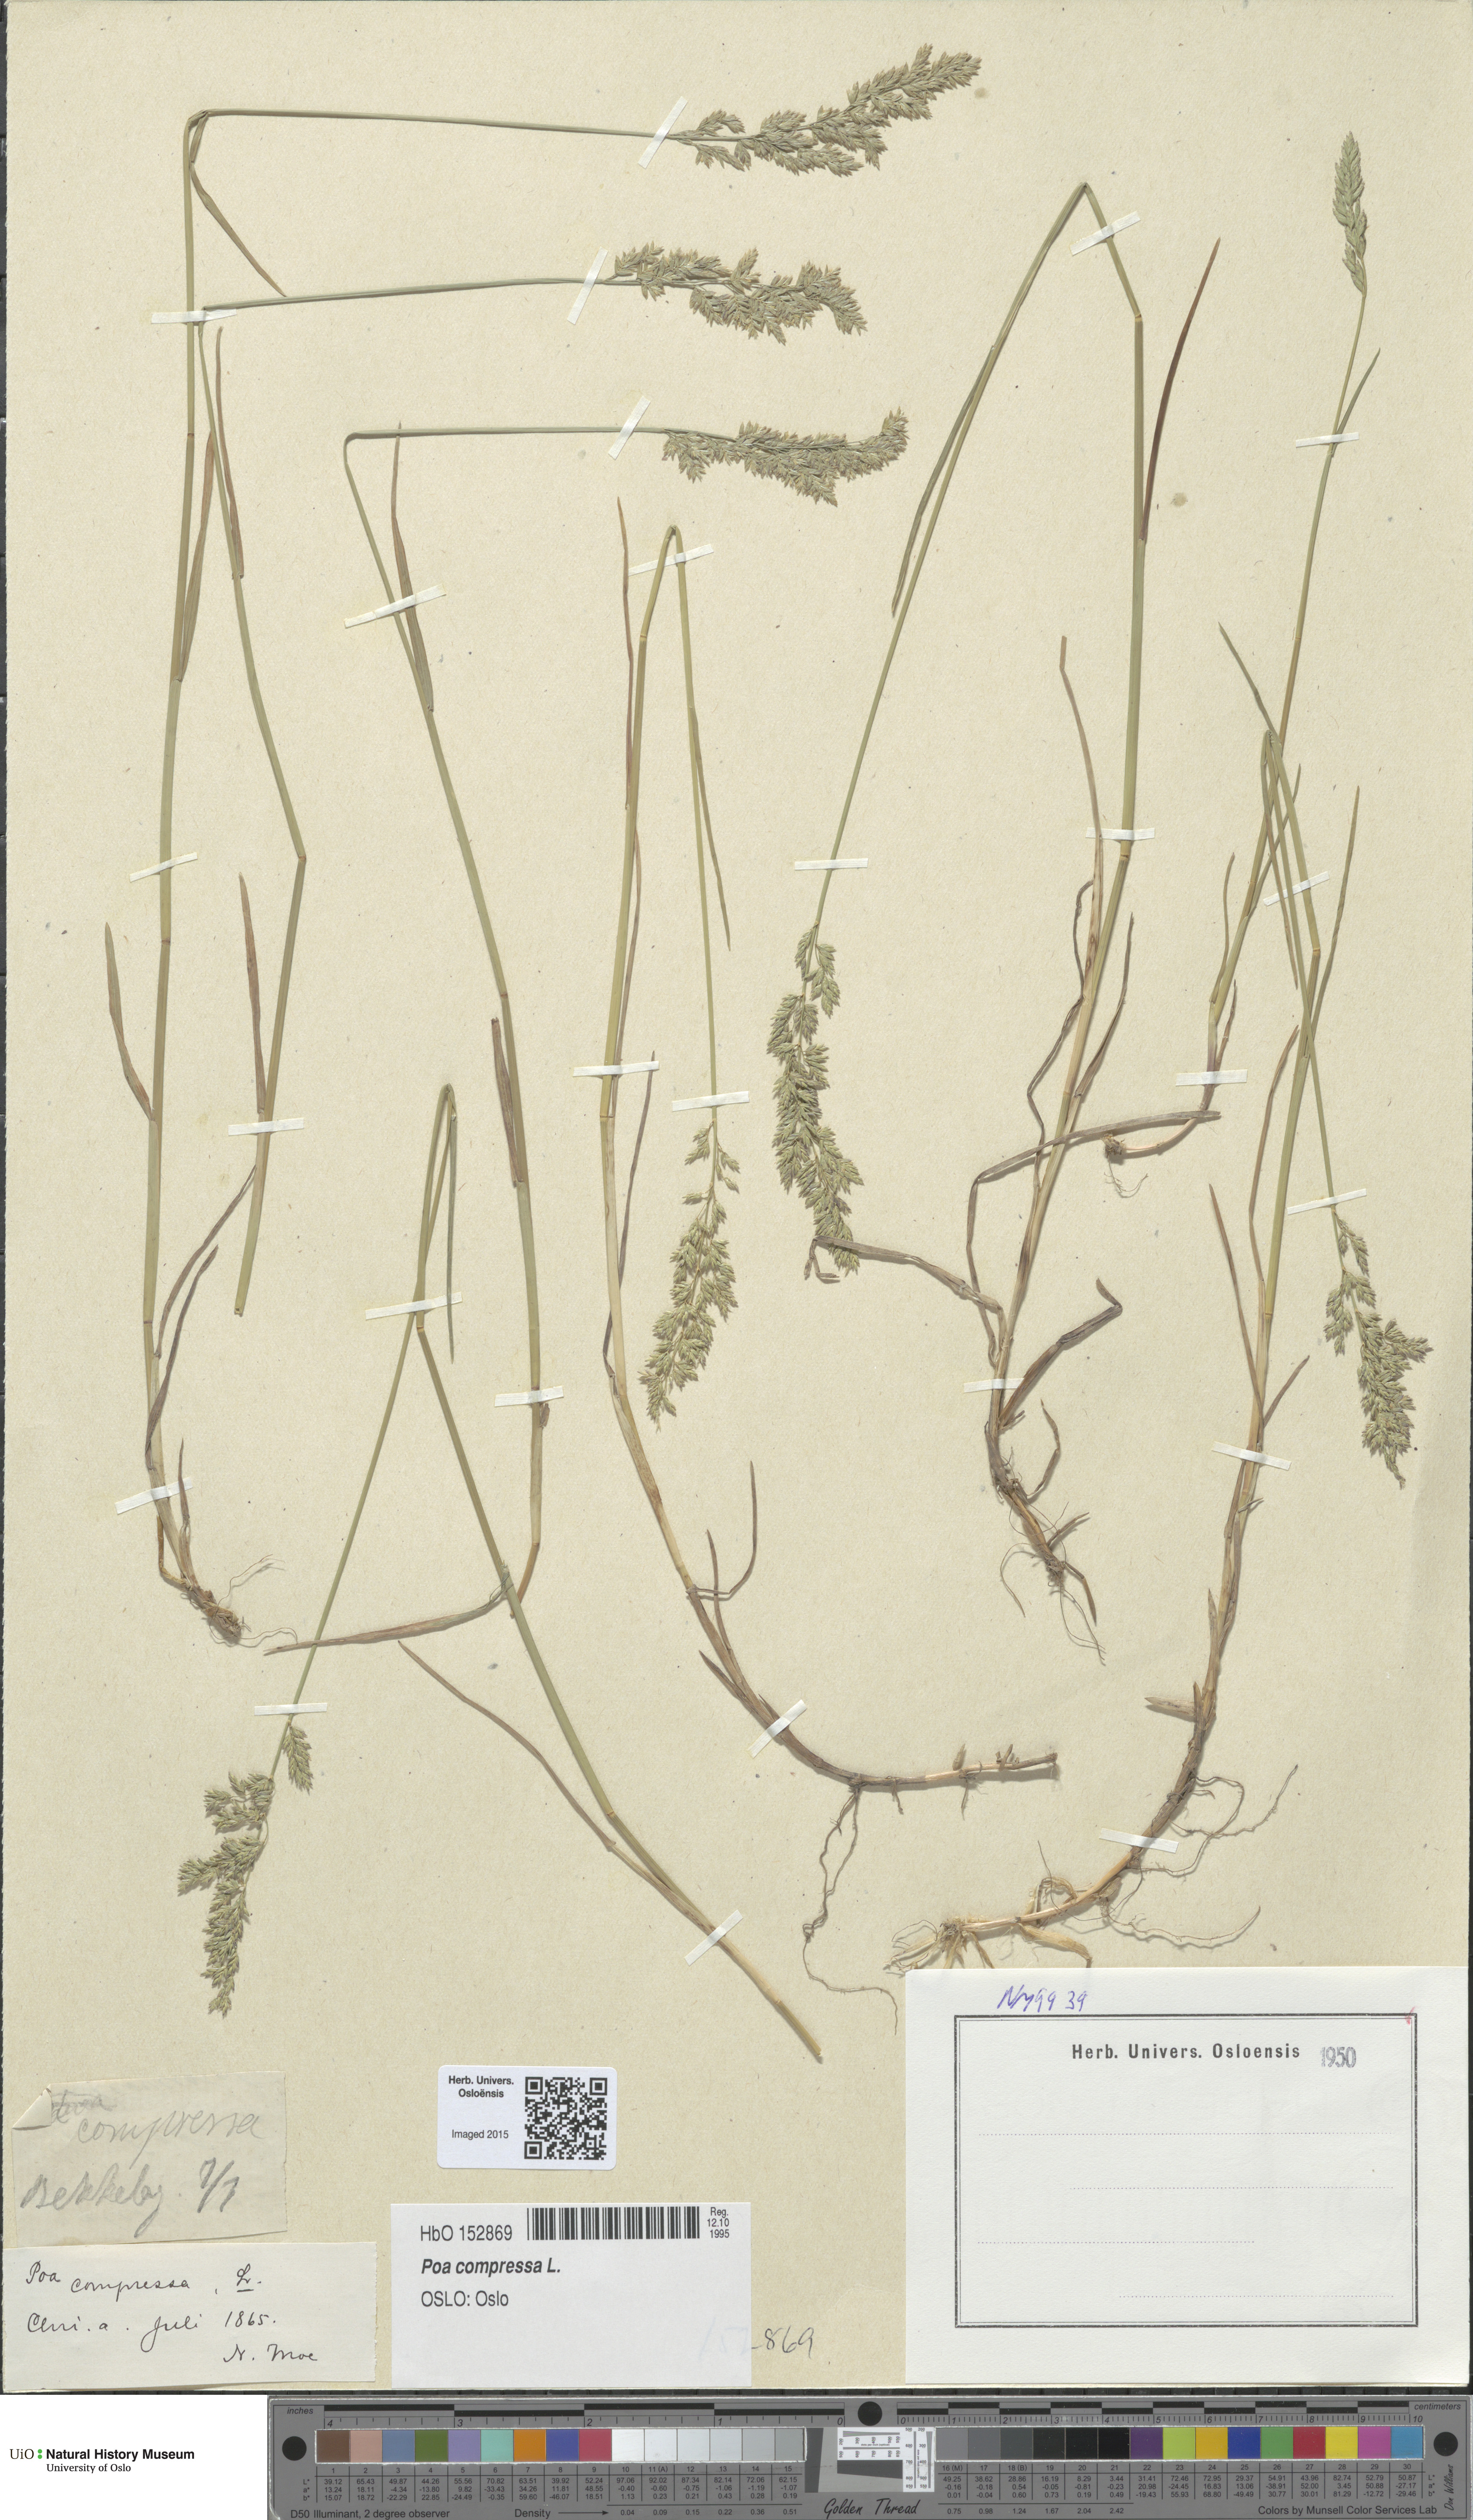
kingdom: Plantae
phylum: Tracheophyta
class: Liliopsida
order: Poales
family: Poaceae
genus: Poa
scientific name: Poa compressa
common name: Canada bluegrass
